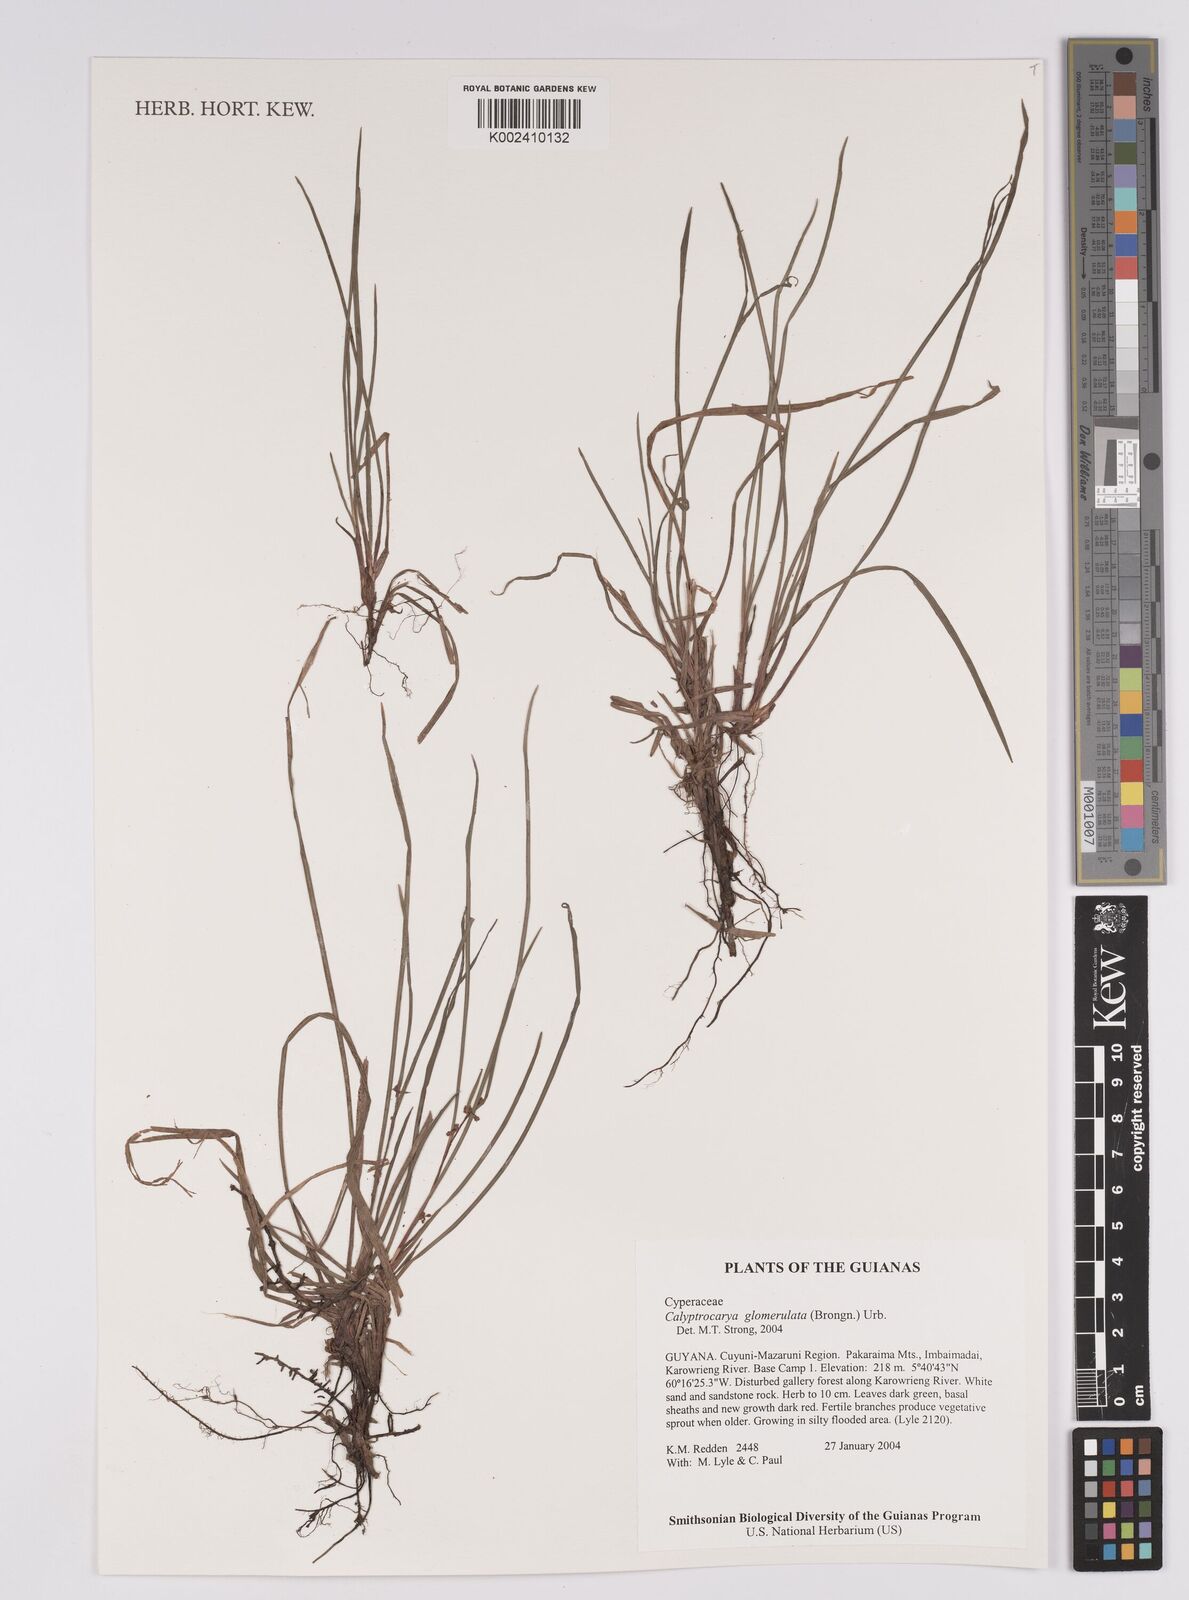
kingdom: Plantae
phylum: Tracheophyta
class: Liliopsida
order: Poales
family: Cyperaceae
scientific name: Cyperaceae
